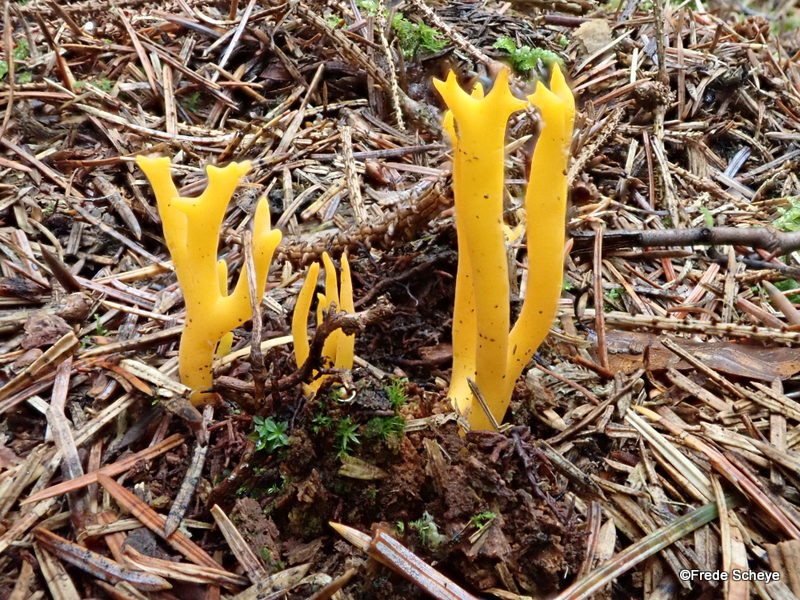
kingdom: Fungi
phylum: Basidiomycota
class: Dacrymycetes
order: Dacrymycetales
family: Dacrymycetaceae
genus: Calocera
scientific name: Calocera viscosa
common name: almindelig guldgaffel
